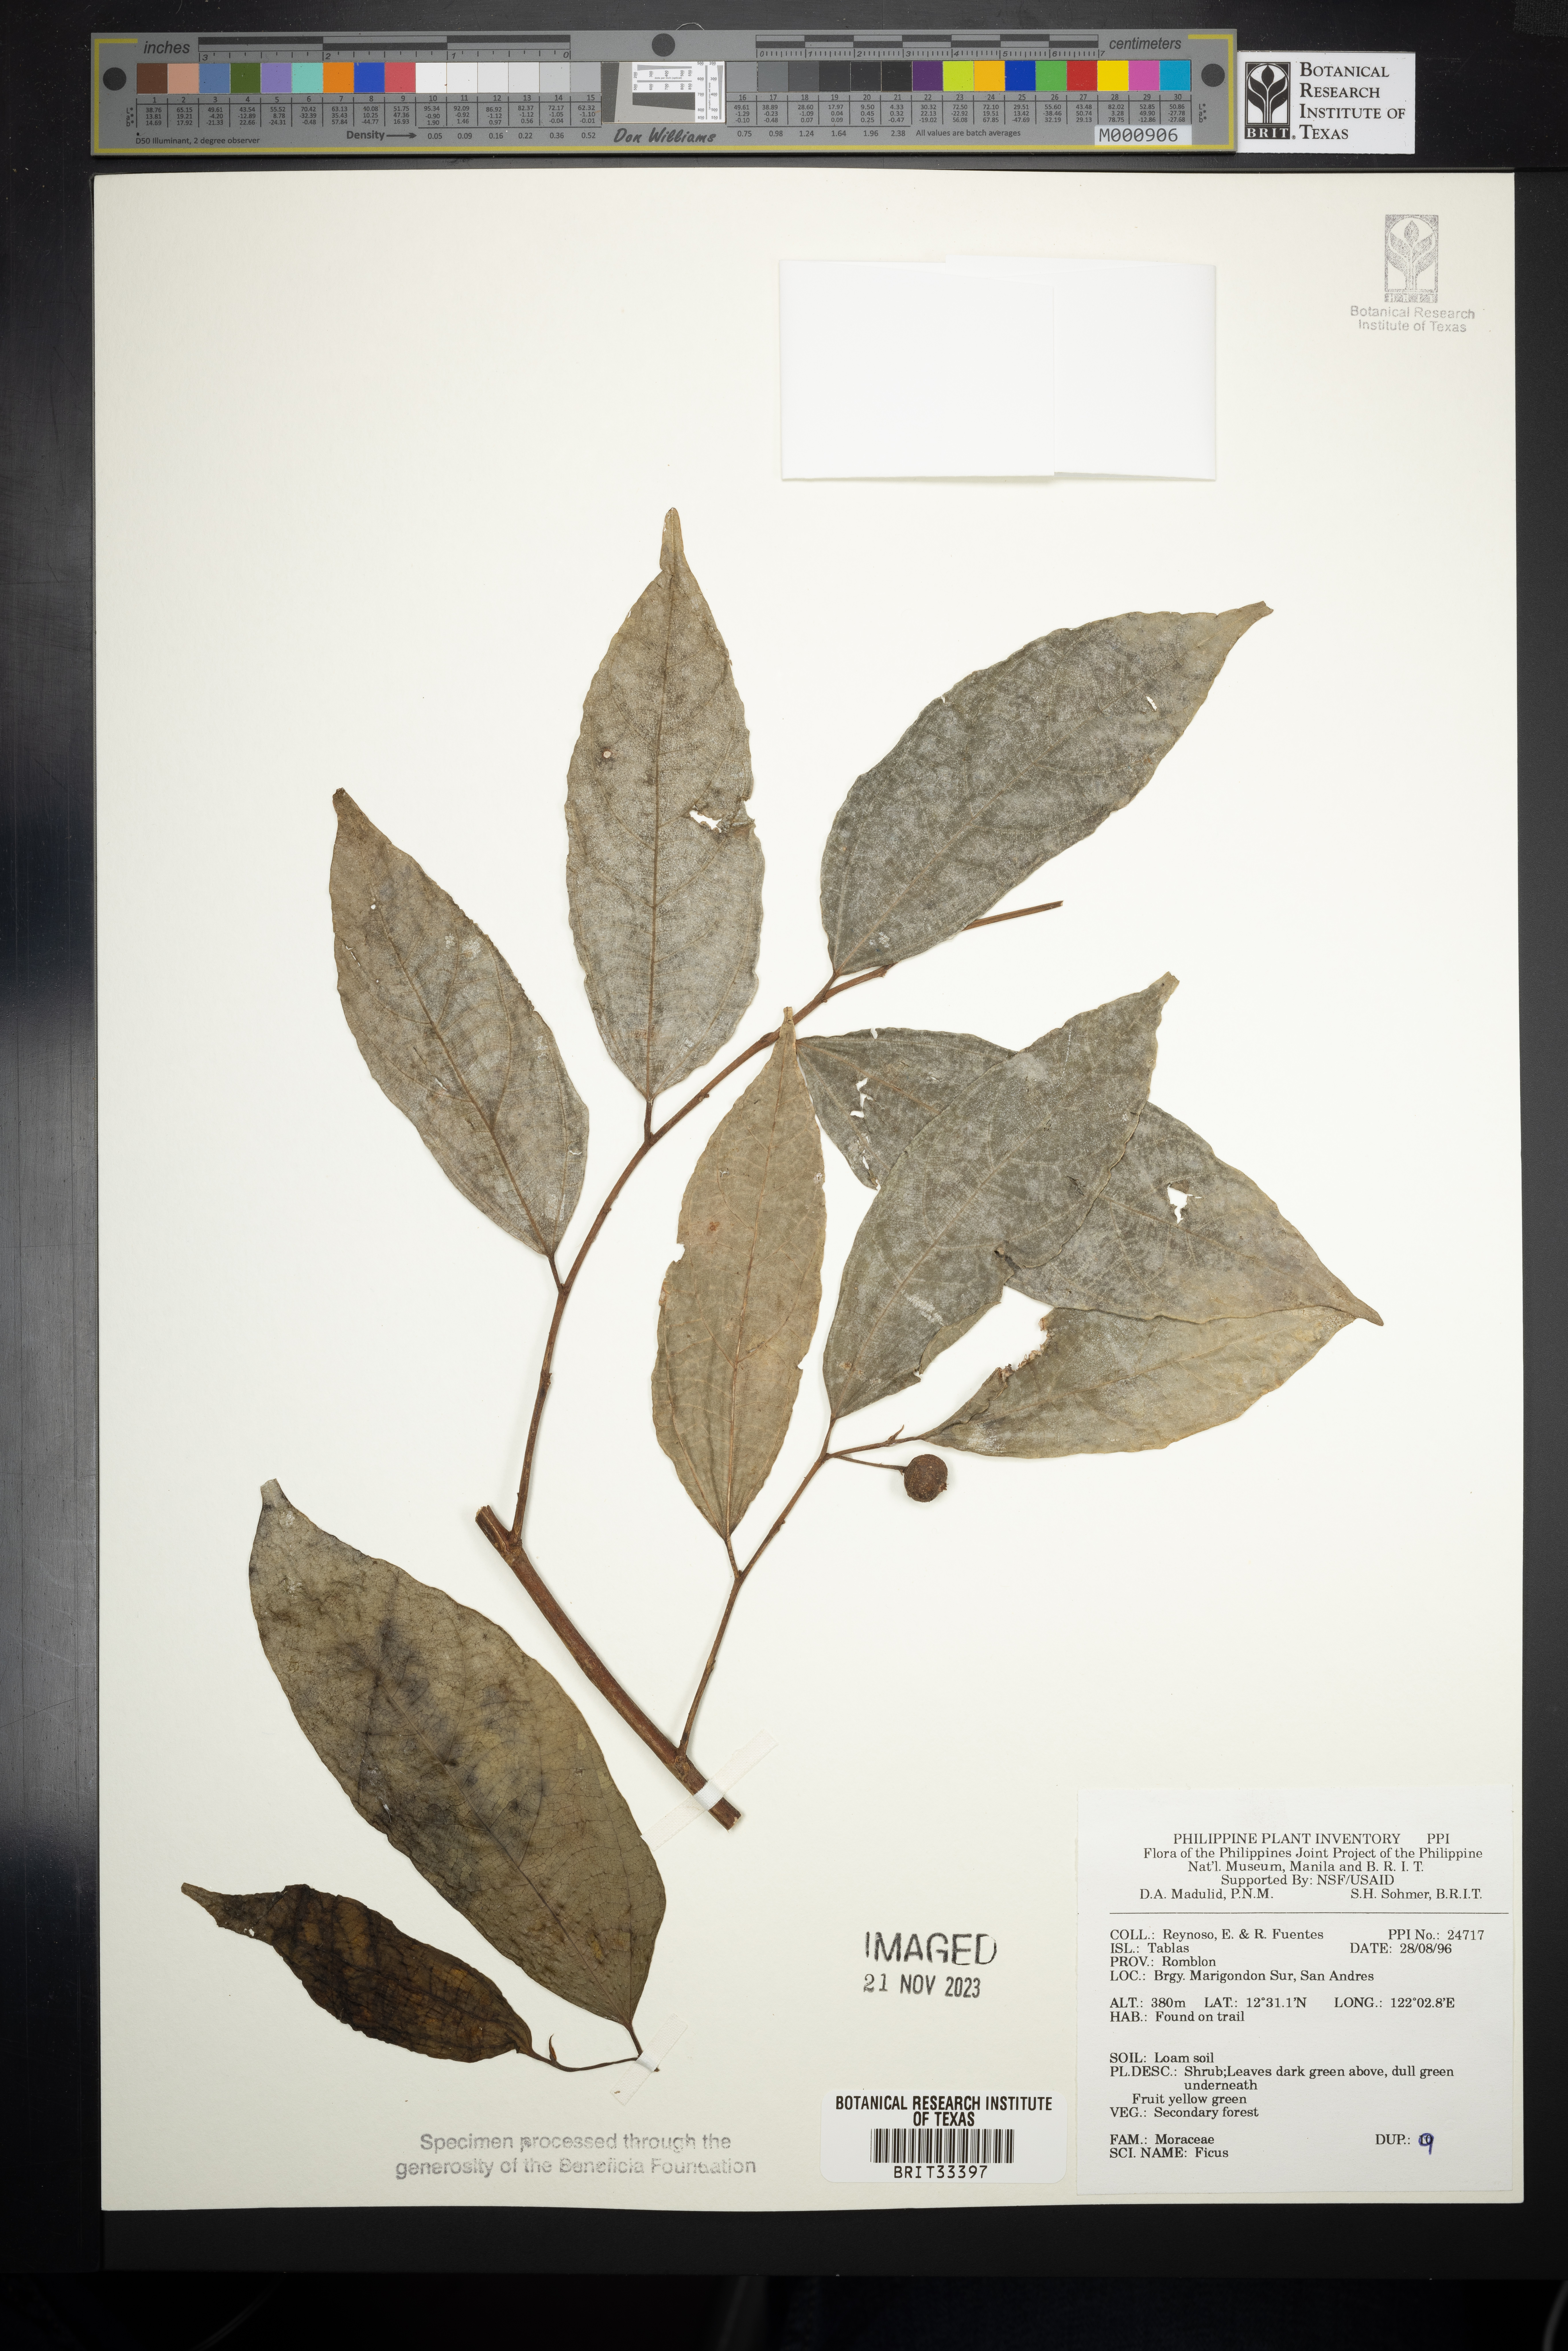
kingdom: Plantae
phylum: Tracheophyta
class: Magnoliopsida
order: Rosales
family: Moraceae
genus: Ficus
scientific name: Ficus
